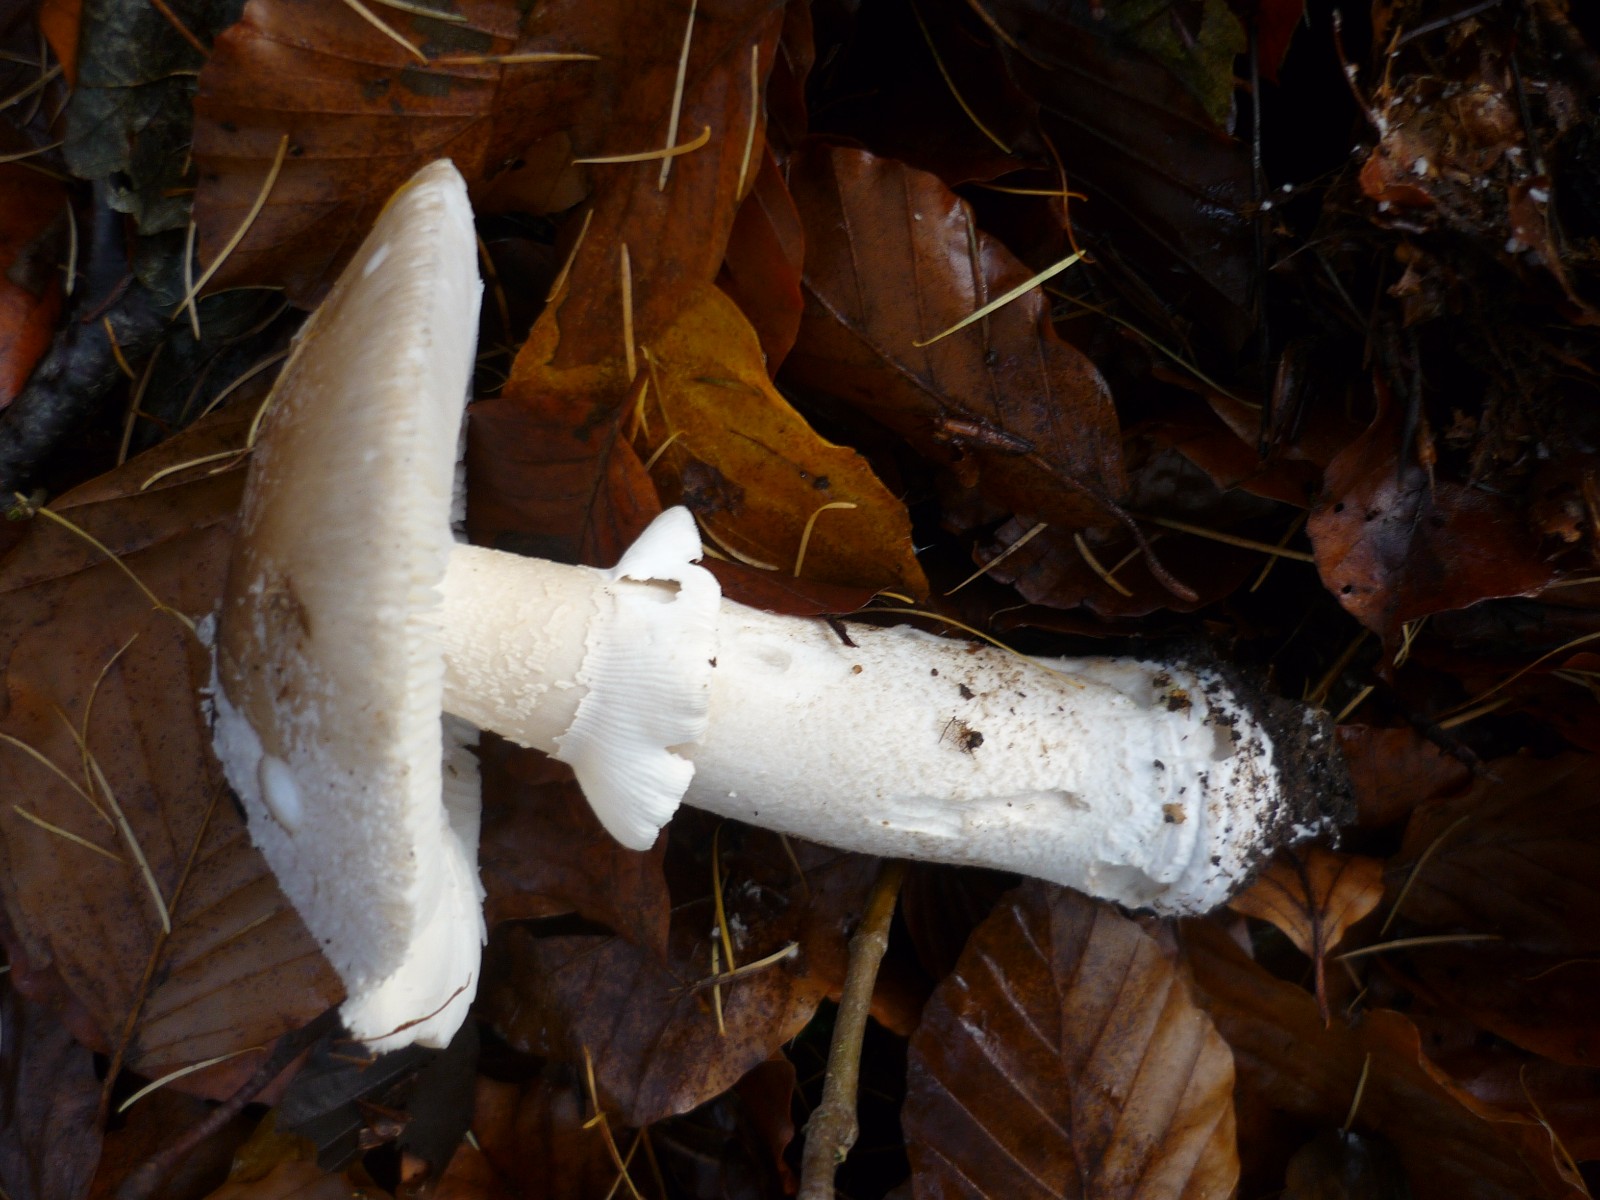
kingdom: Fungi
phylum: Basidiomycota
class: Agaricomycetes
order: Agaricales
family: Amanitaceae
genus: Amanita
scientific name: Amanita rubescens
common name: rødmende fluesvamp
